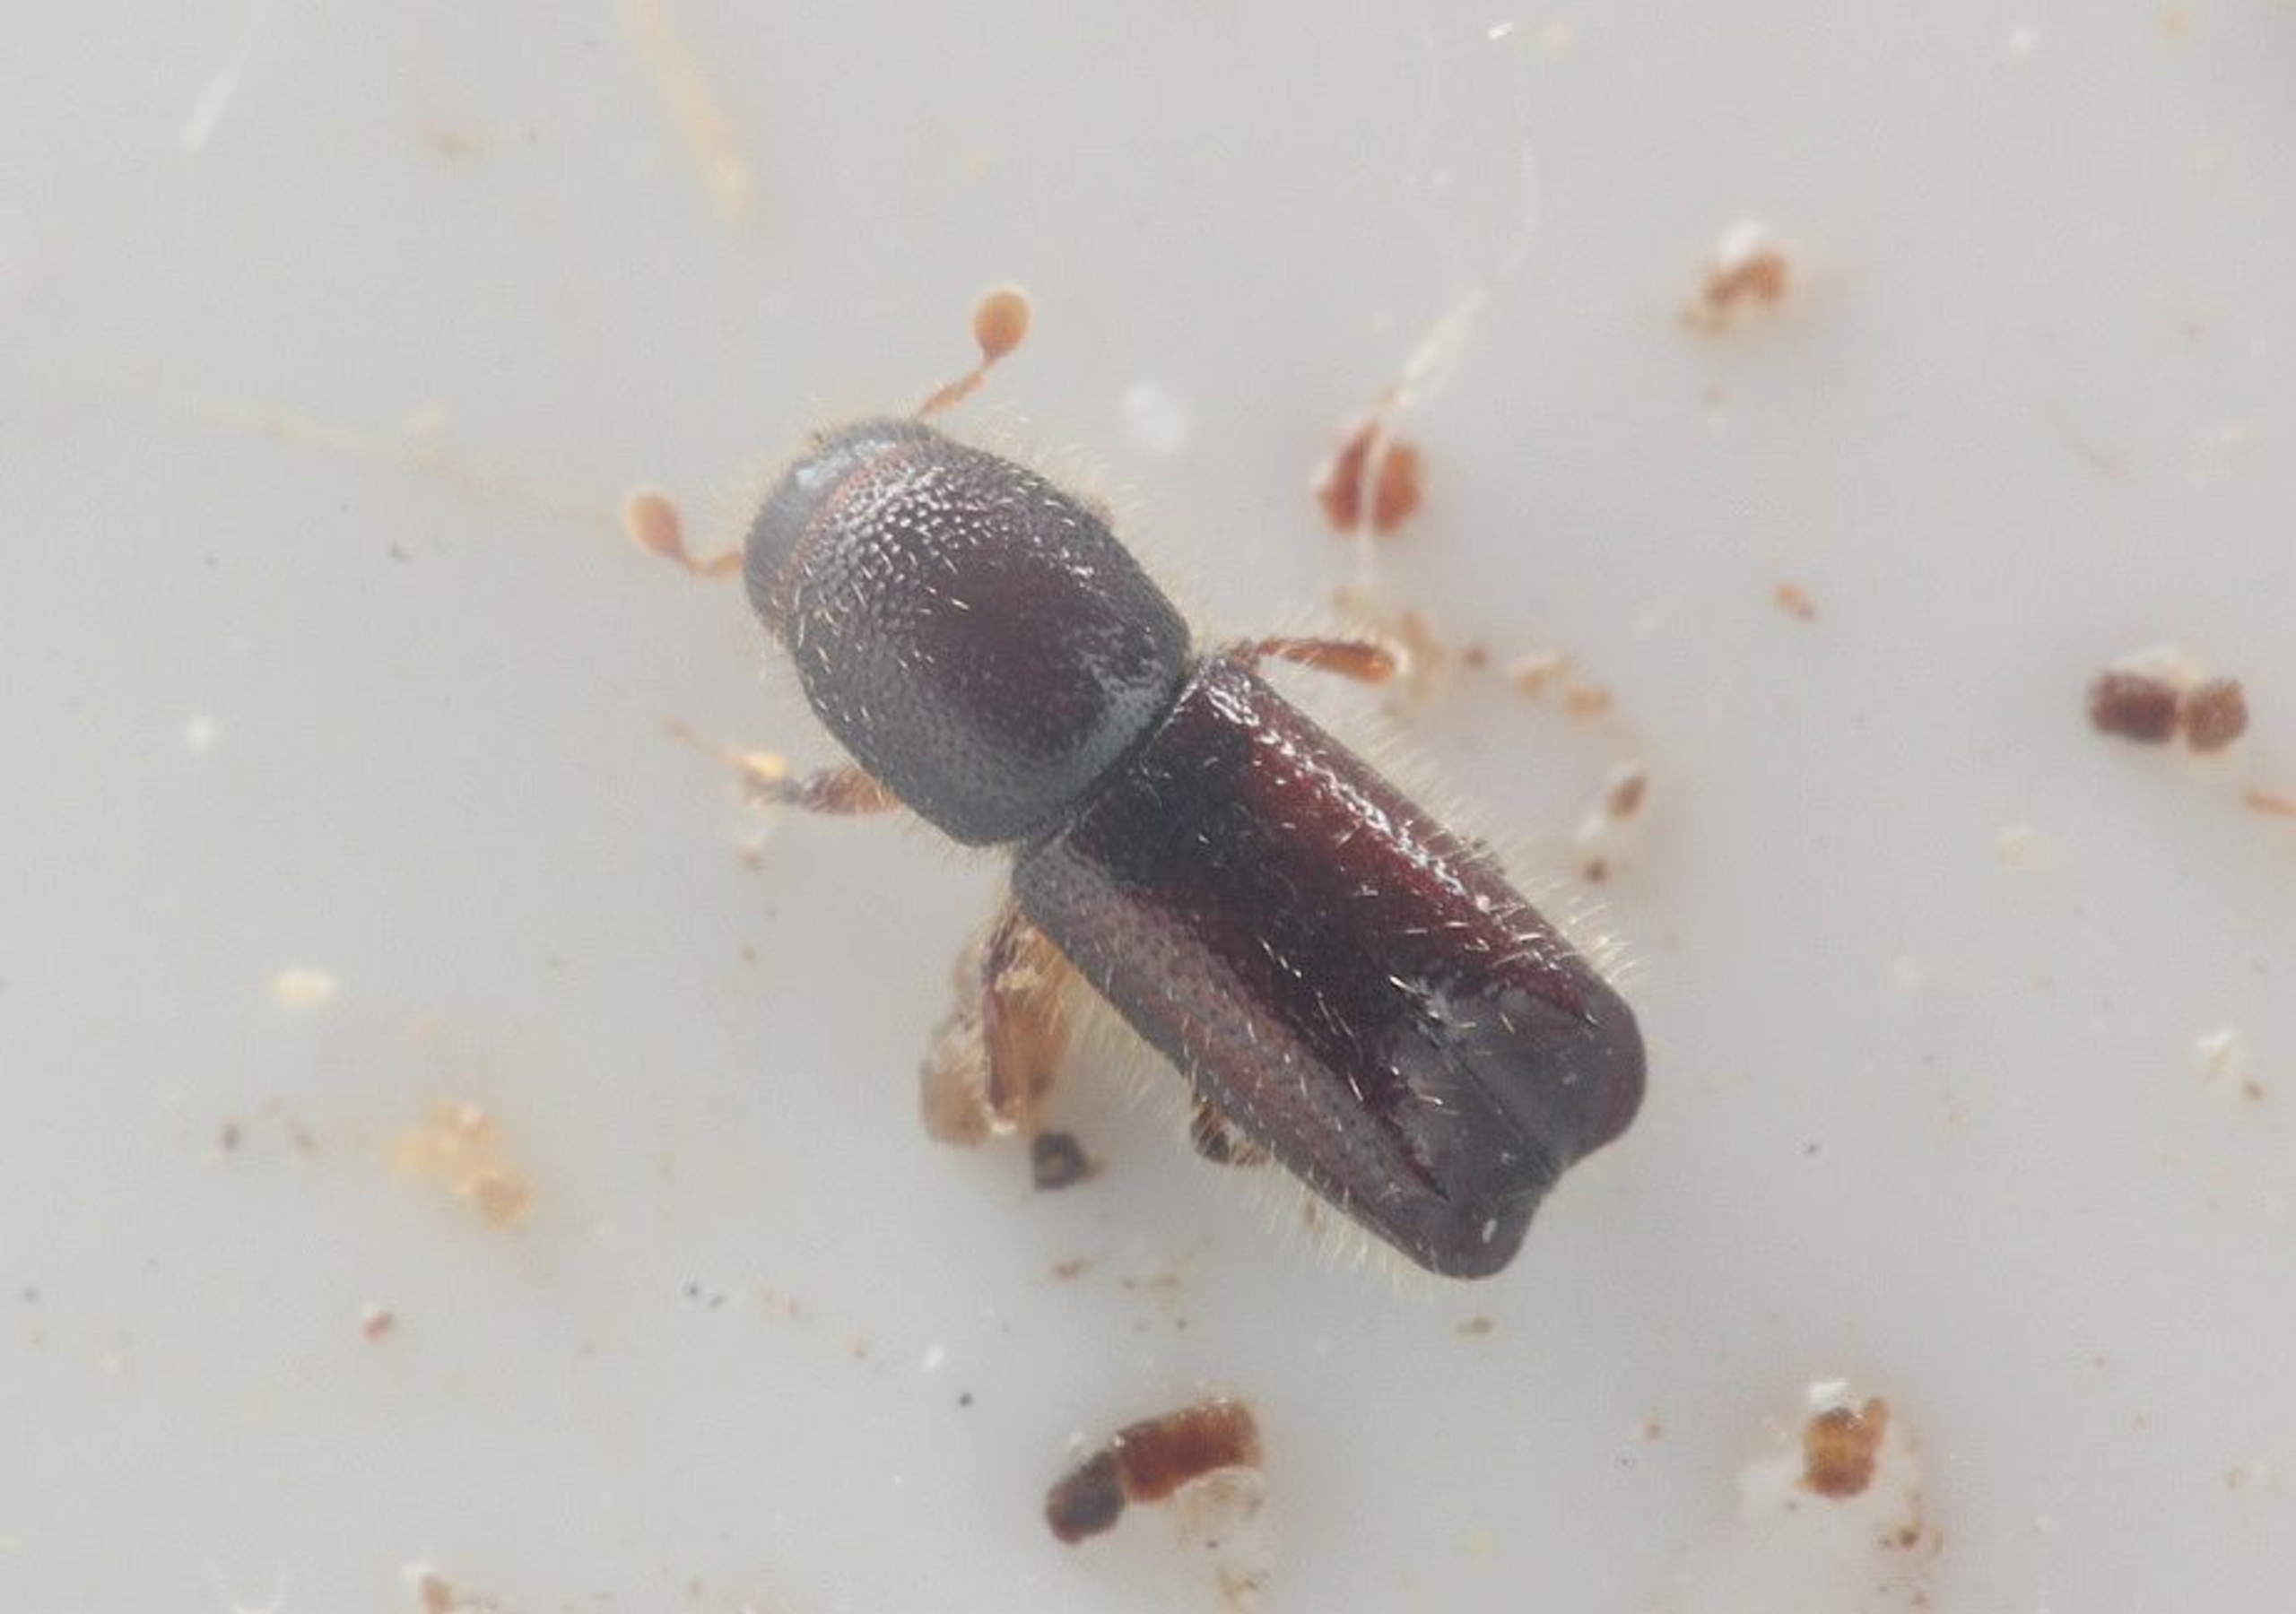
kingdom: Animalia
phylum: Arthropoda
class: Insecta
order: Coleoptera
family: Curculionidae
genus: Xylocleptes
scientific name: Xylocleptes bispinus
